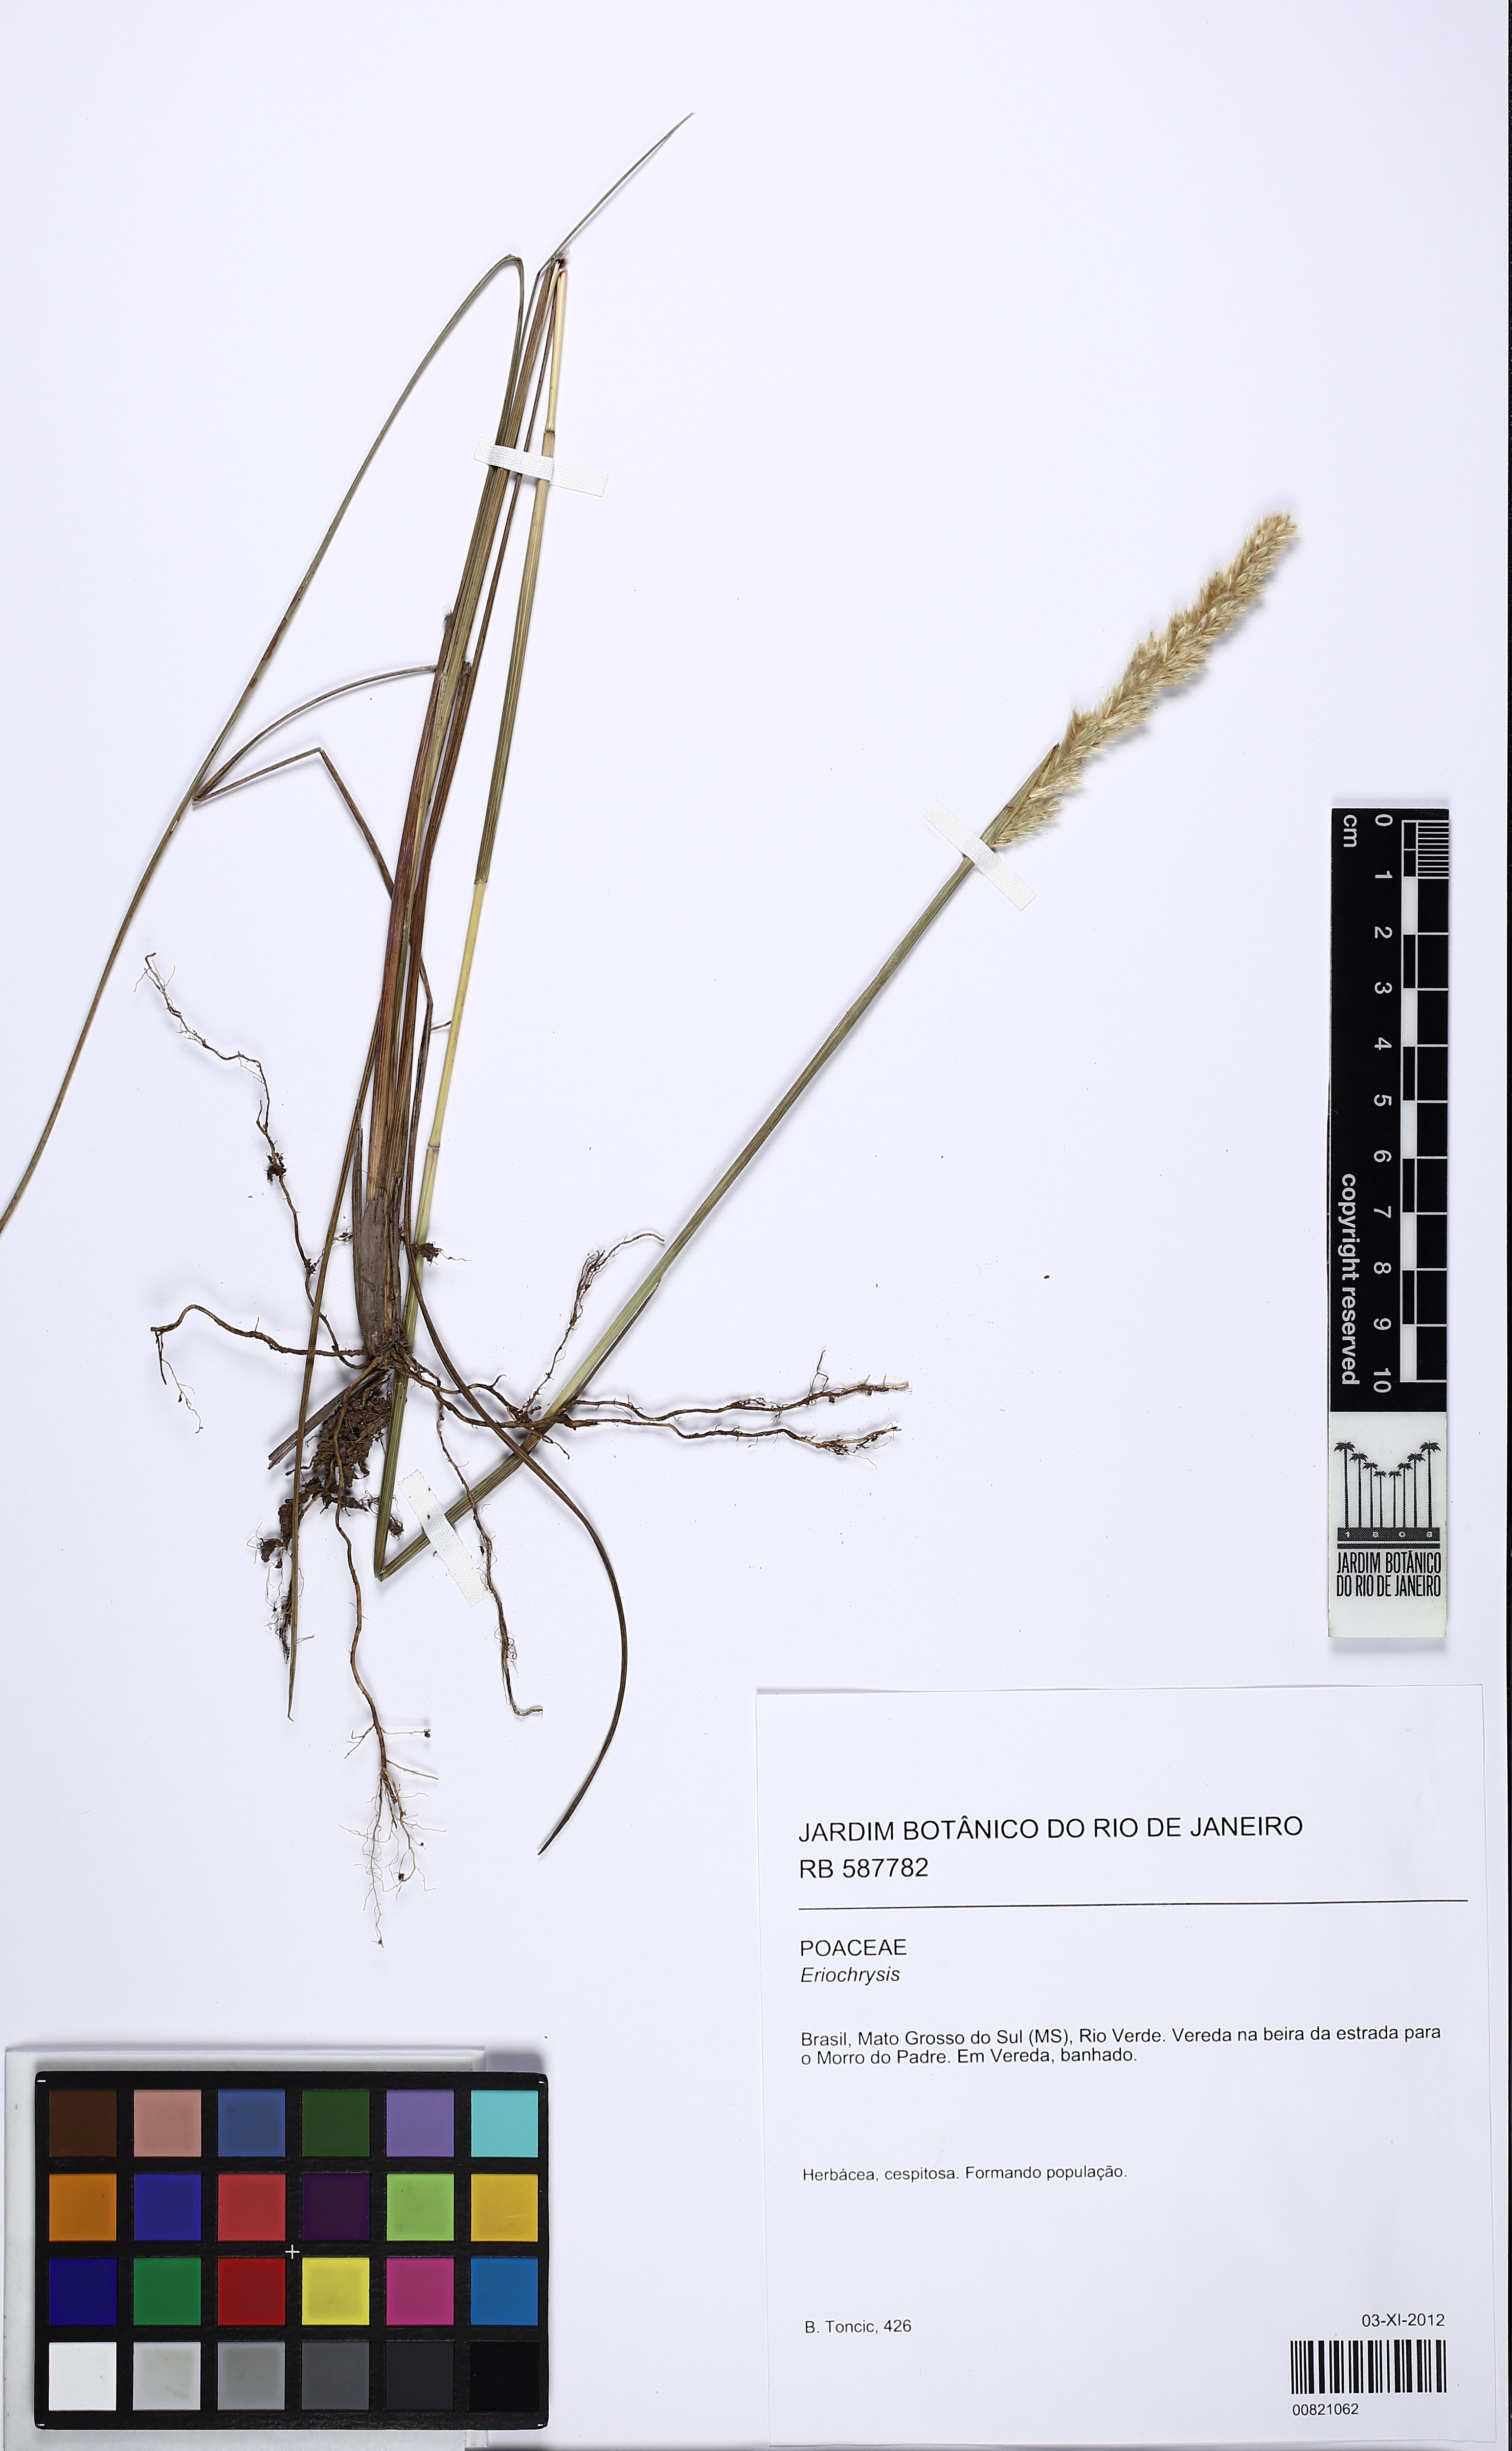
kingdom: Plantae
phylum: Tracheophyta
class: Liliopsida
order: Poales
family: Poaceae
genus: Eriochrysis
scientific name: Eriochrysis
